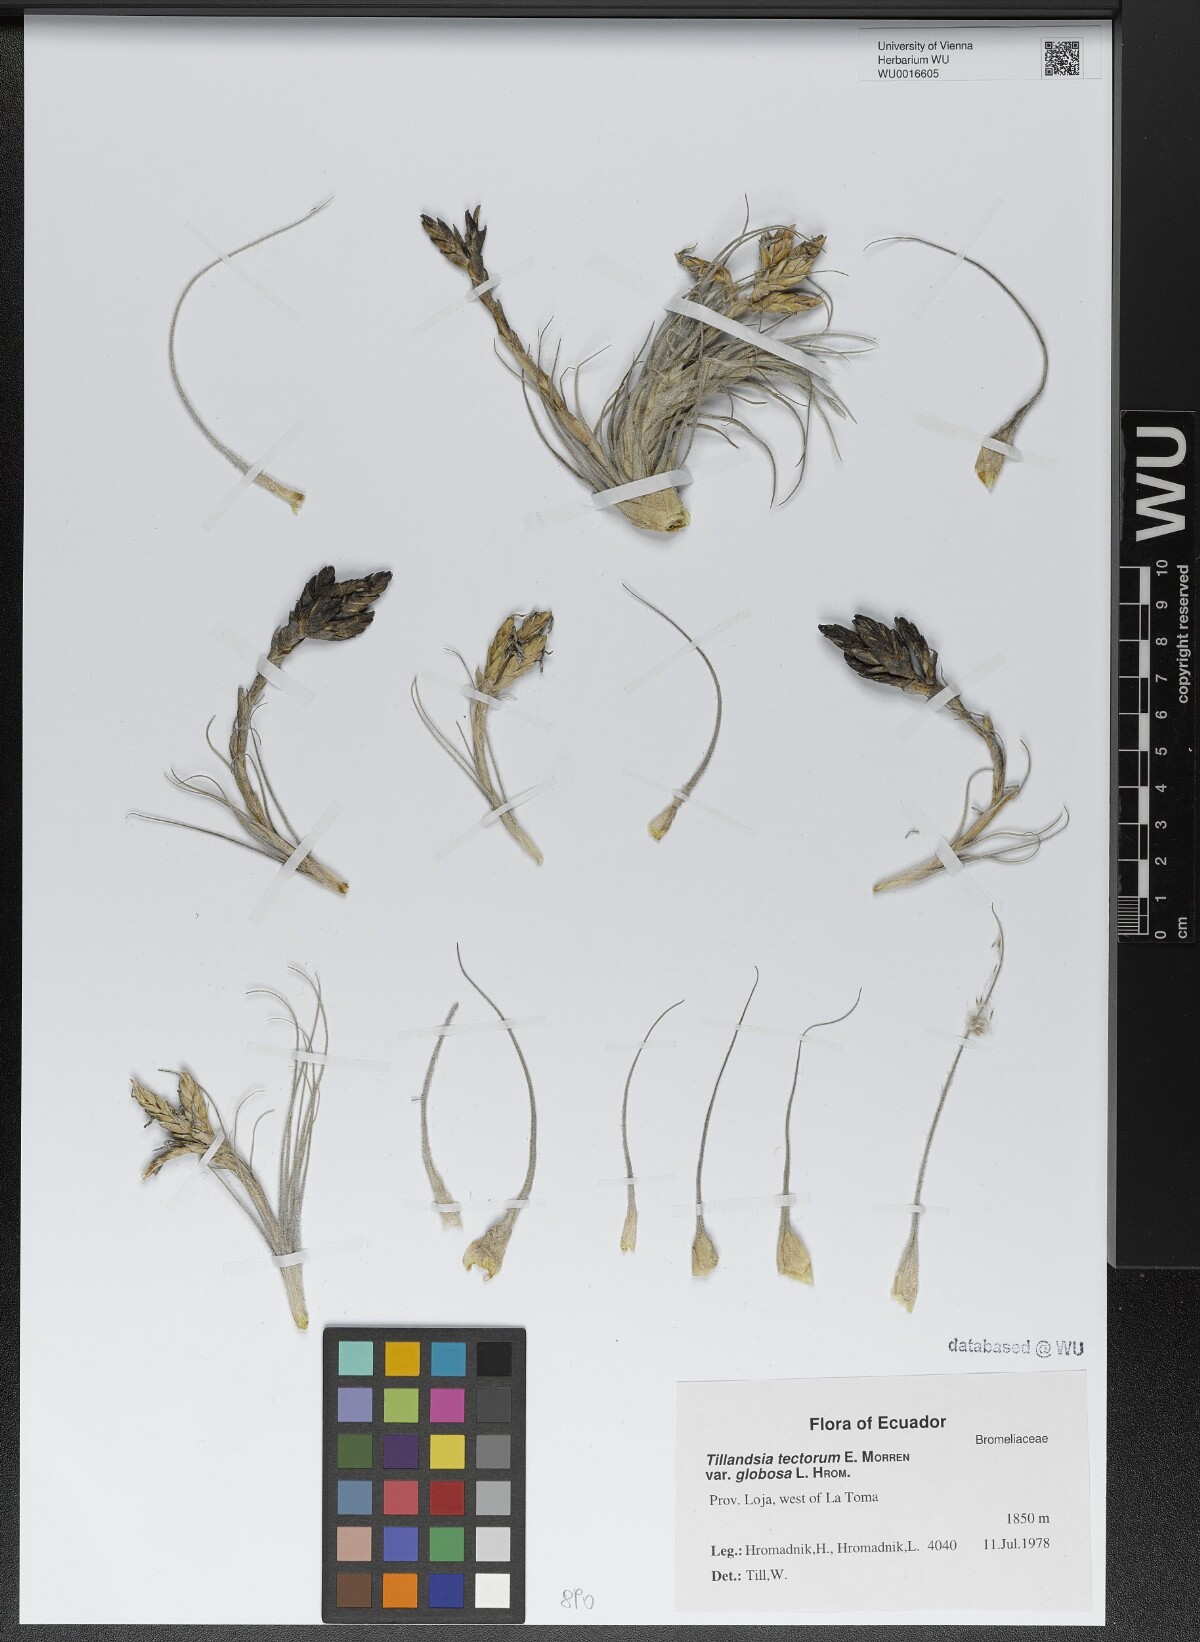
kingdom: Plantae
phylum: Tracheophyta
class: Liliopsida
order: Poales
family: Bromeliaceae
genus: Tillandsia
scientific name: Tillandsia tectorum
